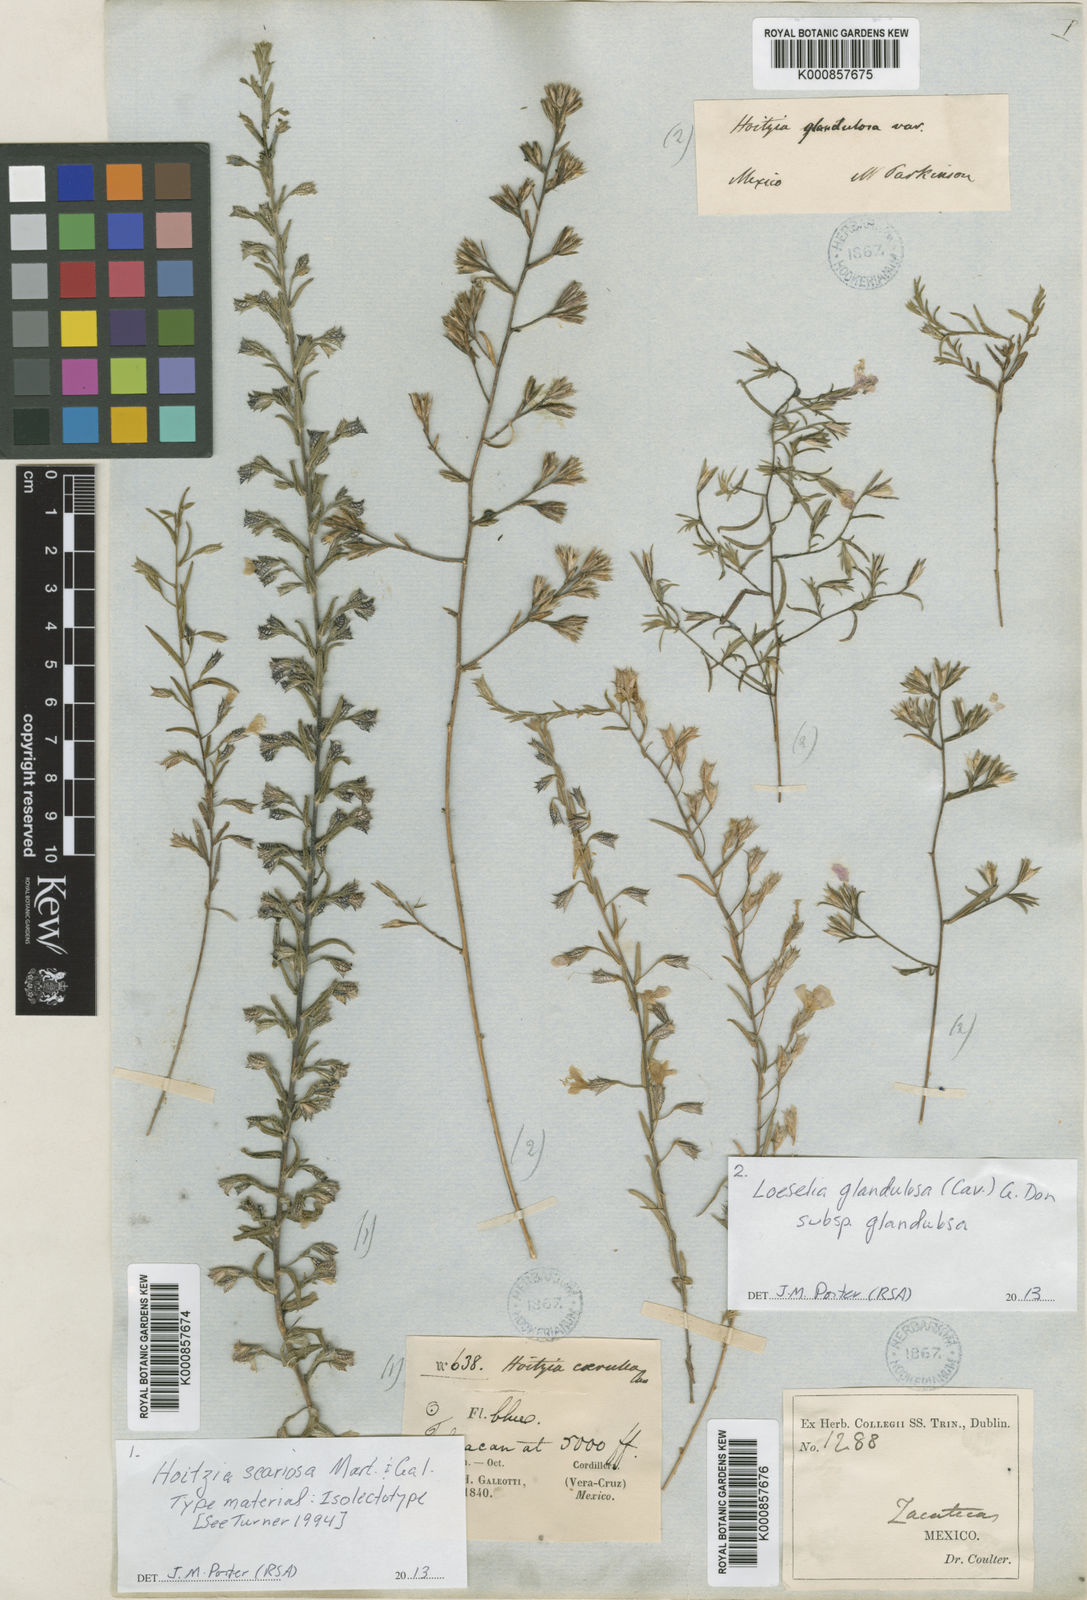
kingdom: Plantae
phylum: Tracheophyta
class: Magnoliopsida
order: Ericales
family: Polemoniaceae
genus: Loeselia
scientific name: Loeselia greggii
